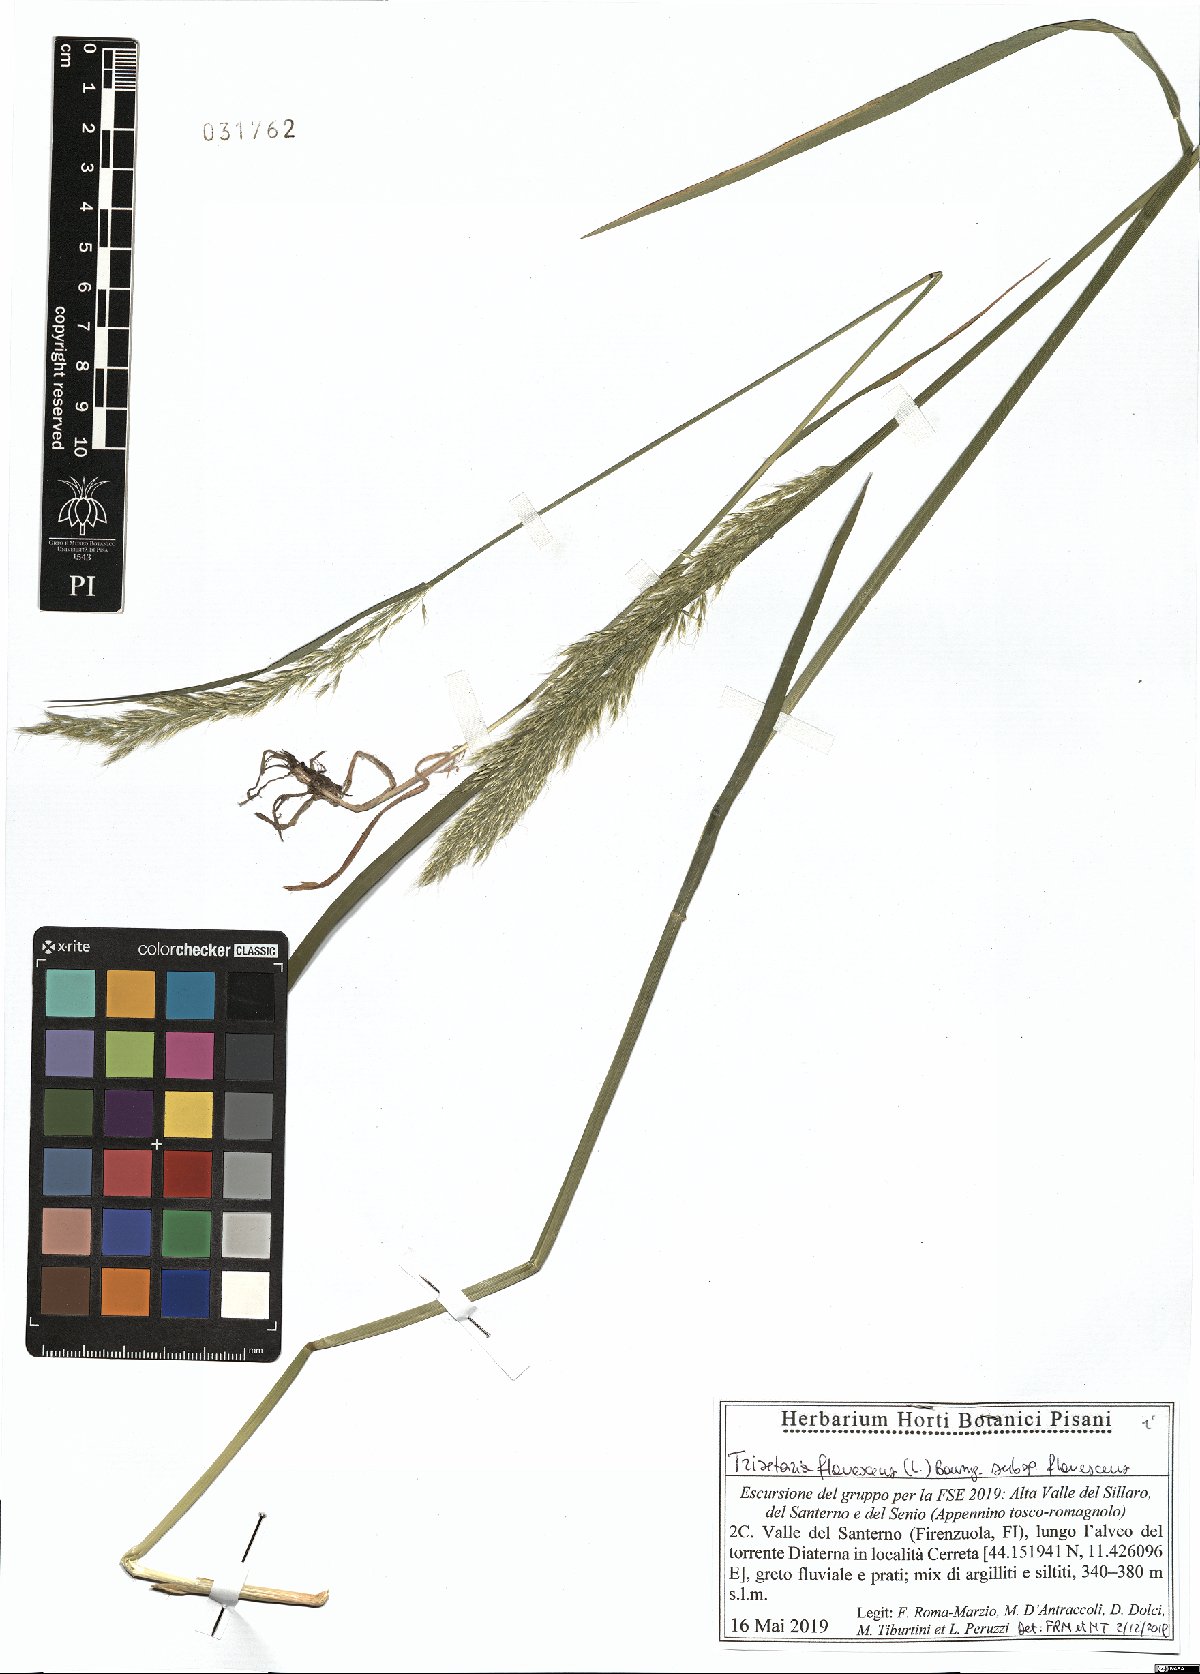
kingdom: Plantae
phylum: Tracheophyta
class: Liliopsida
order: Poales
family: Poaceae
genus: Trisetum
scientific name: Trisetum flavescens
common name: Yellow oat-grass
